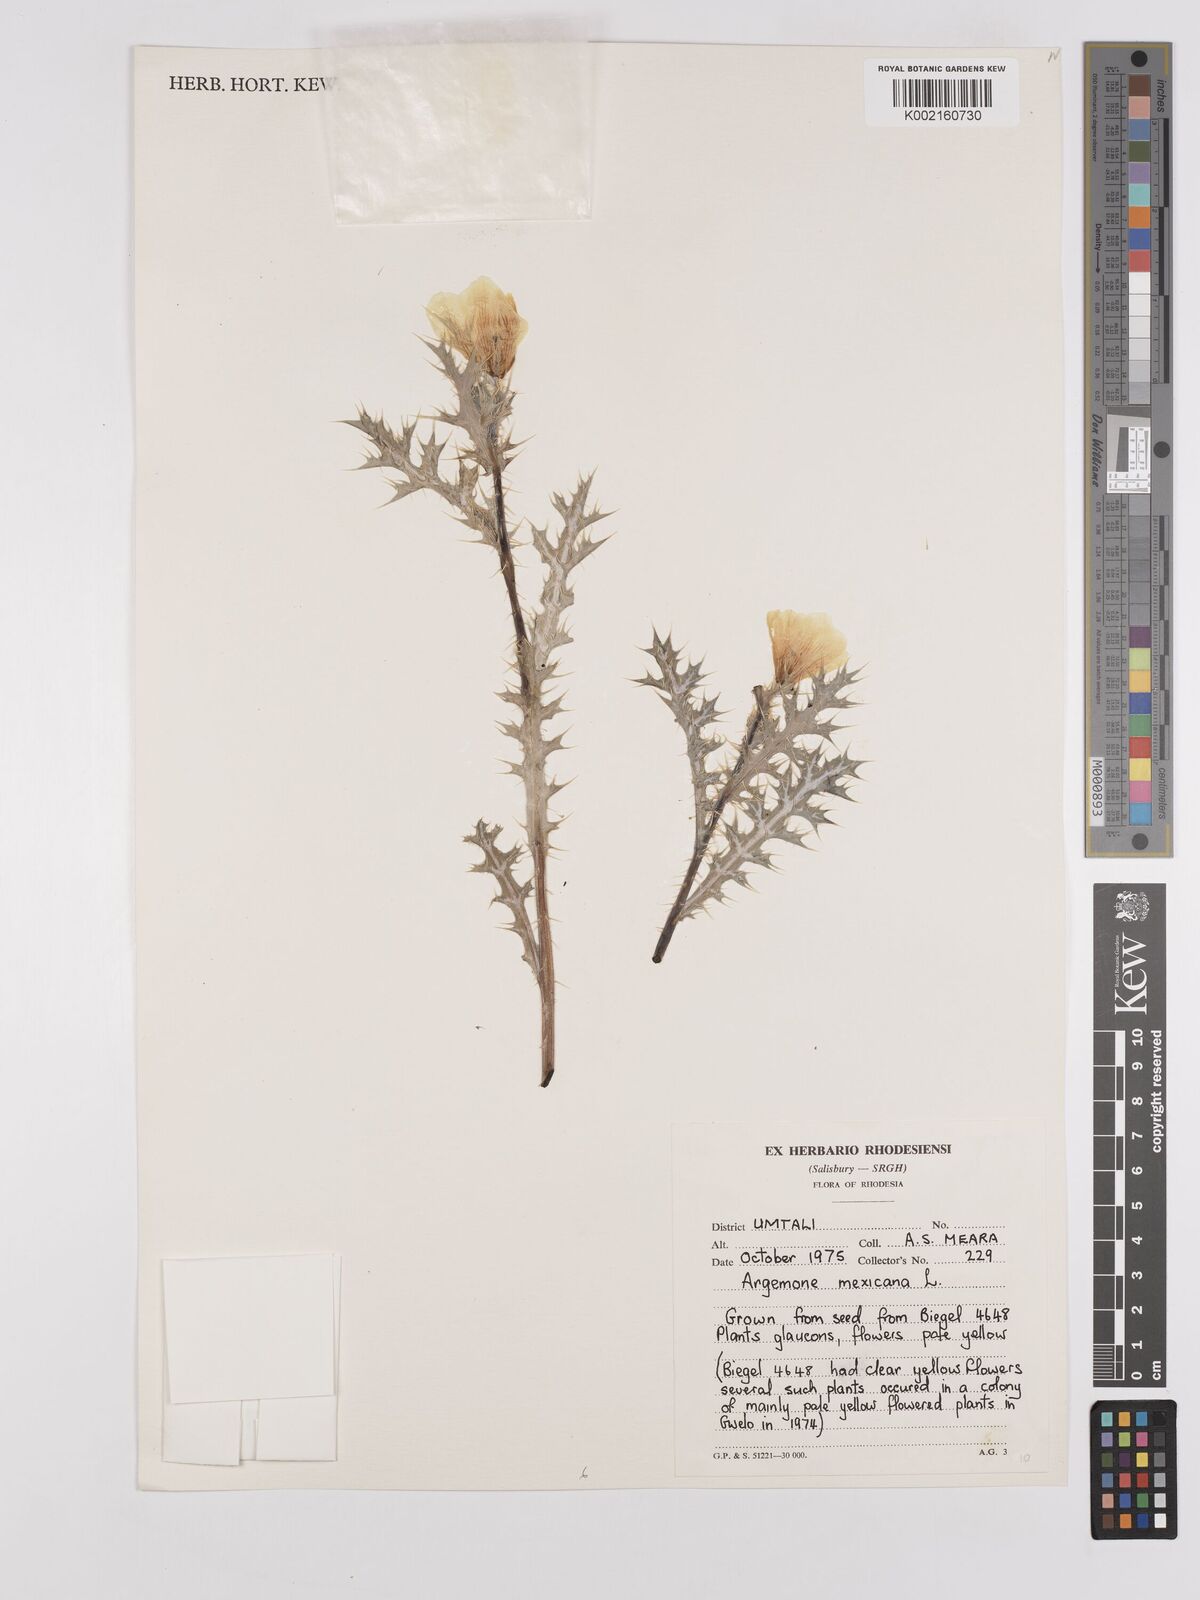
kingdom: Plantae
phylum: Tracheophyta
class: Magnoliopsida
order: Ranunculales
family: Papaveraceae
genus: Argemone
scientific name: Argemone mexicana
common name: Mexican poppy
